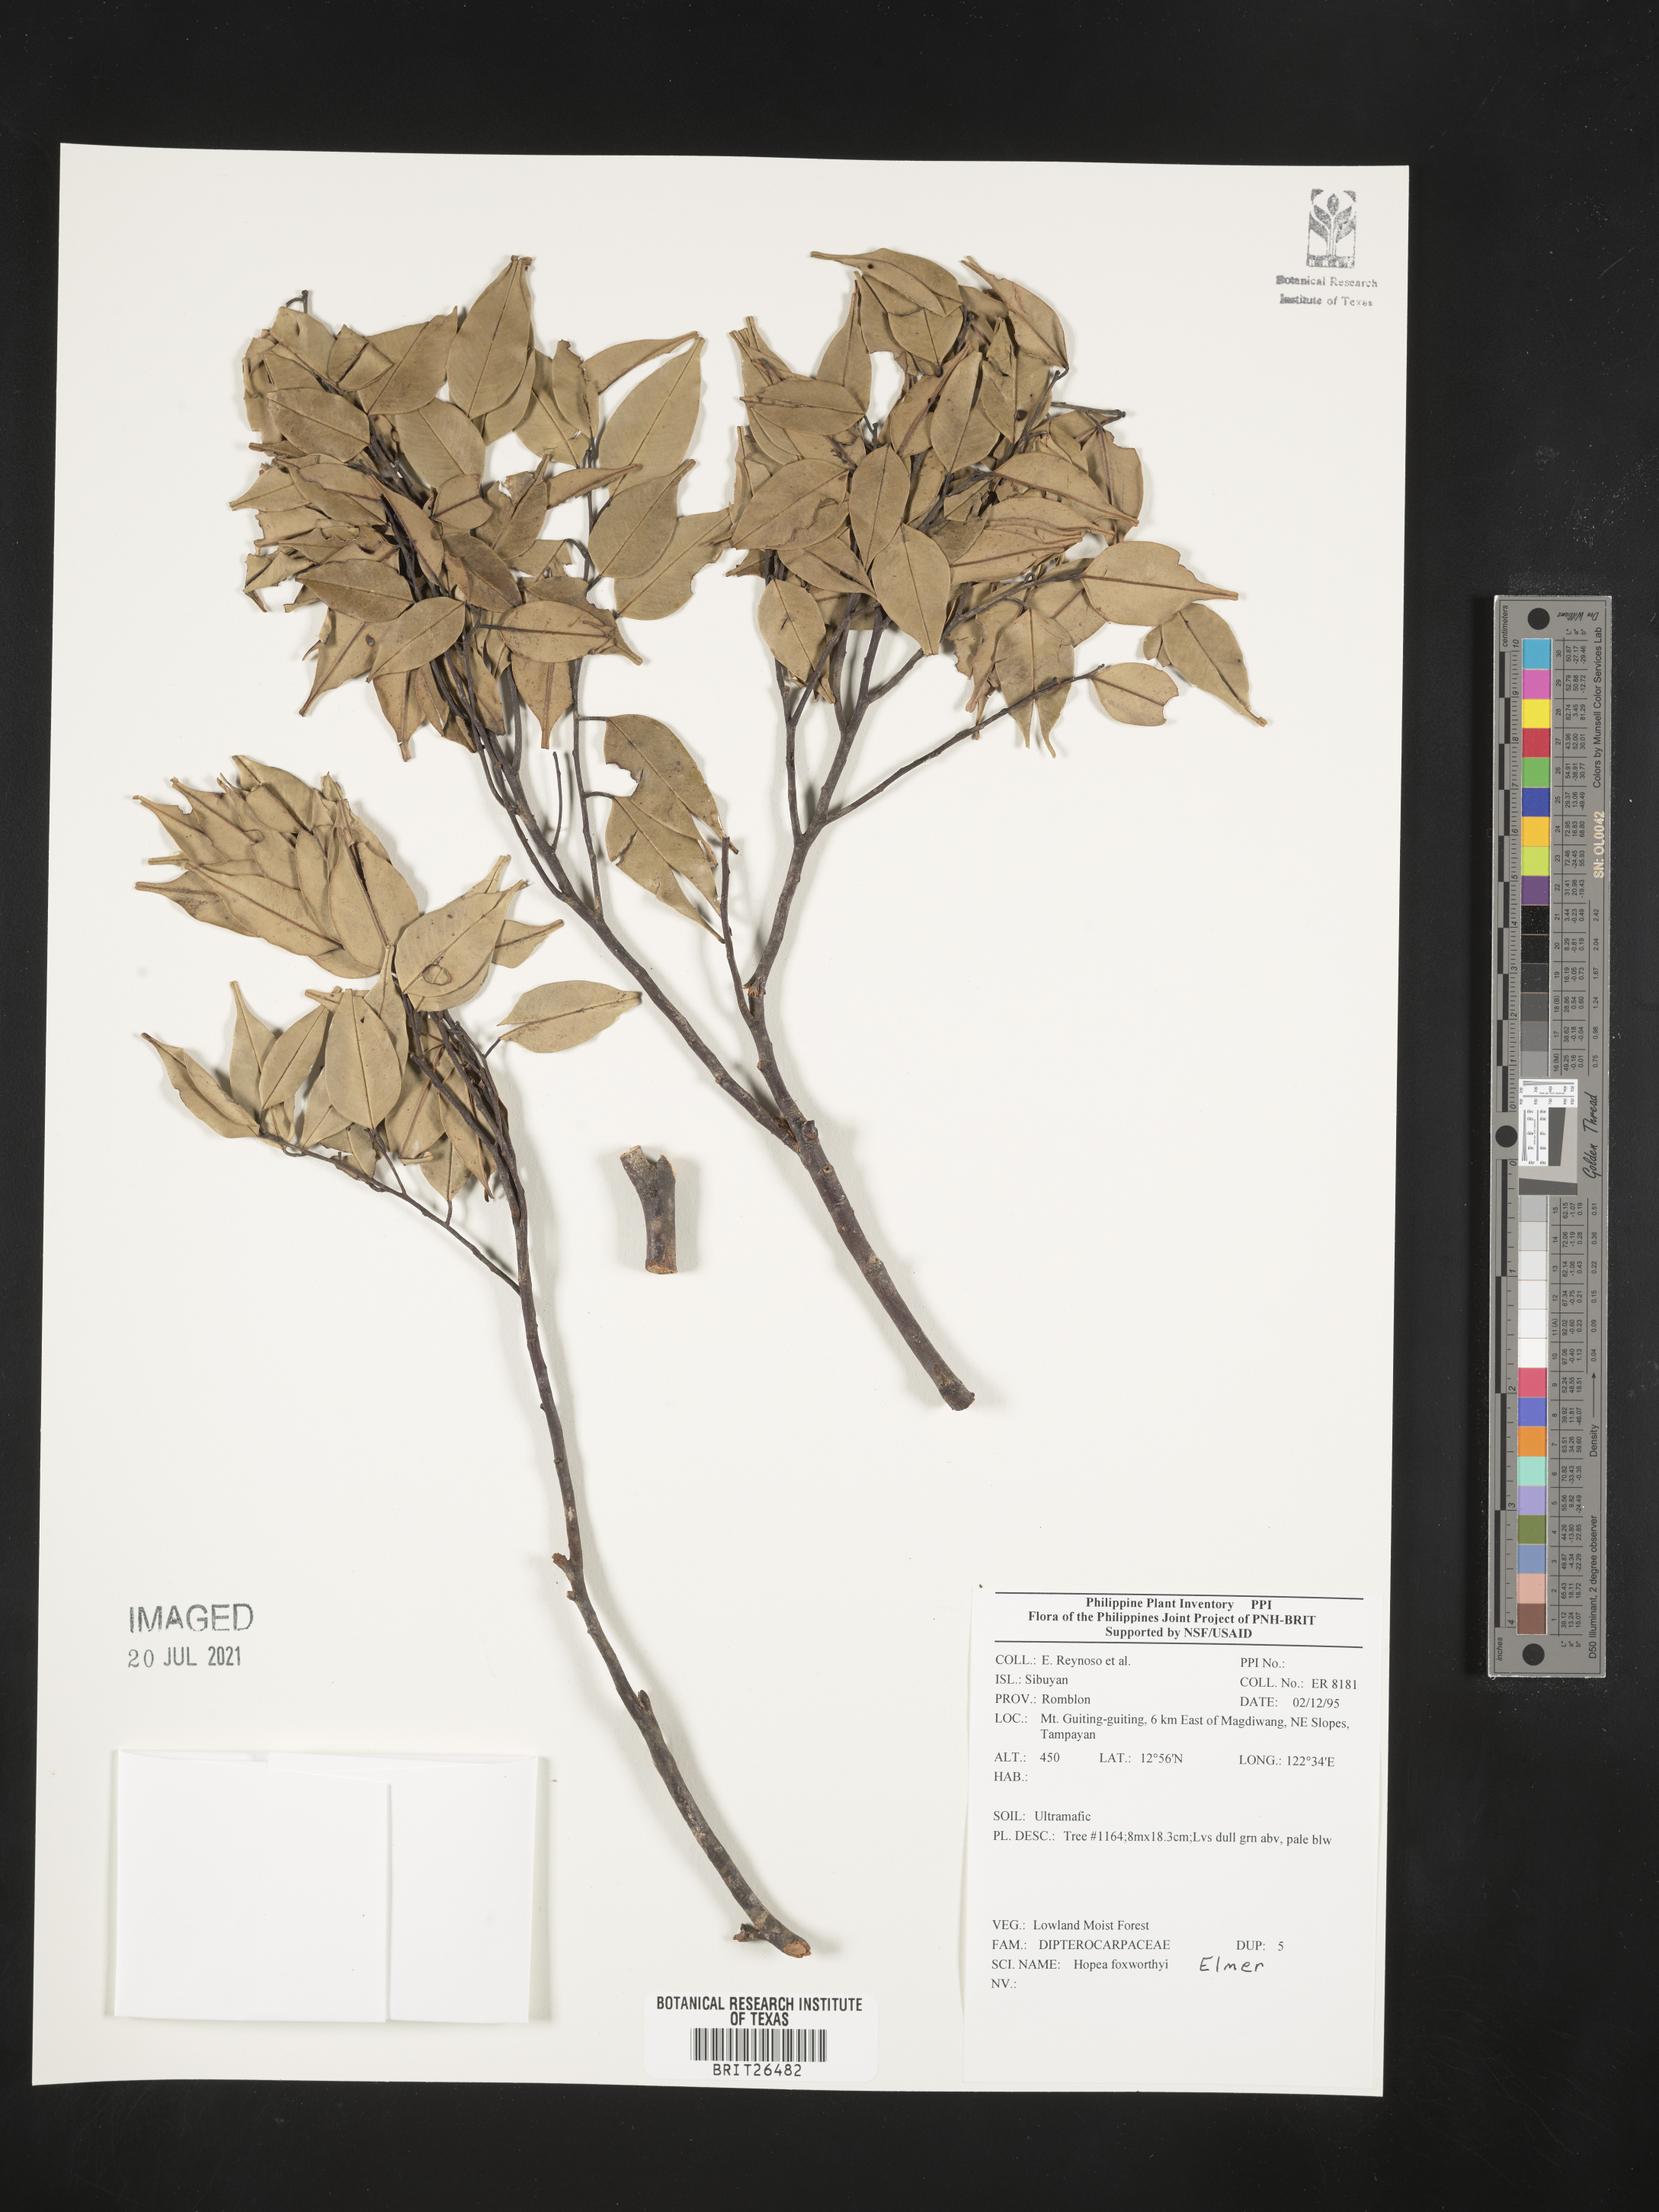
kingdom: Plantae
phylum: Tracheophyta
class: Magnoliopsida
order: Malvales
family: Dipterocarpaceae
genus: Hopea
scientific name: Hopea foxworthyi
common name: Dalingdingan
